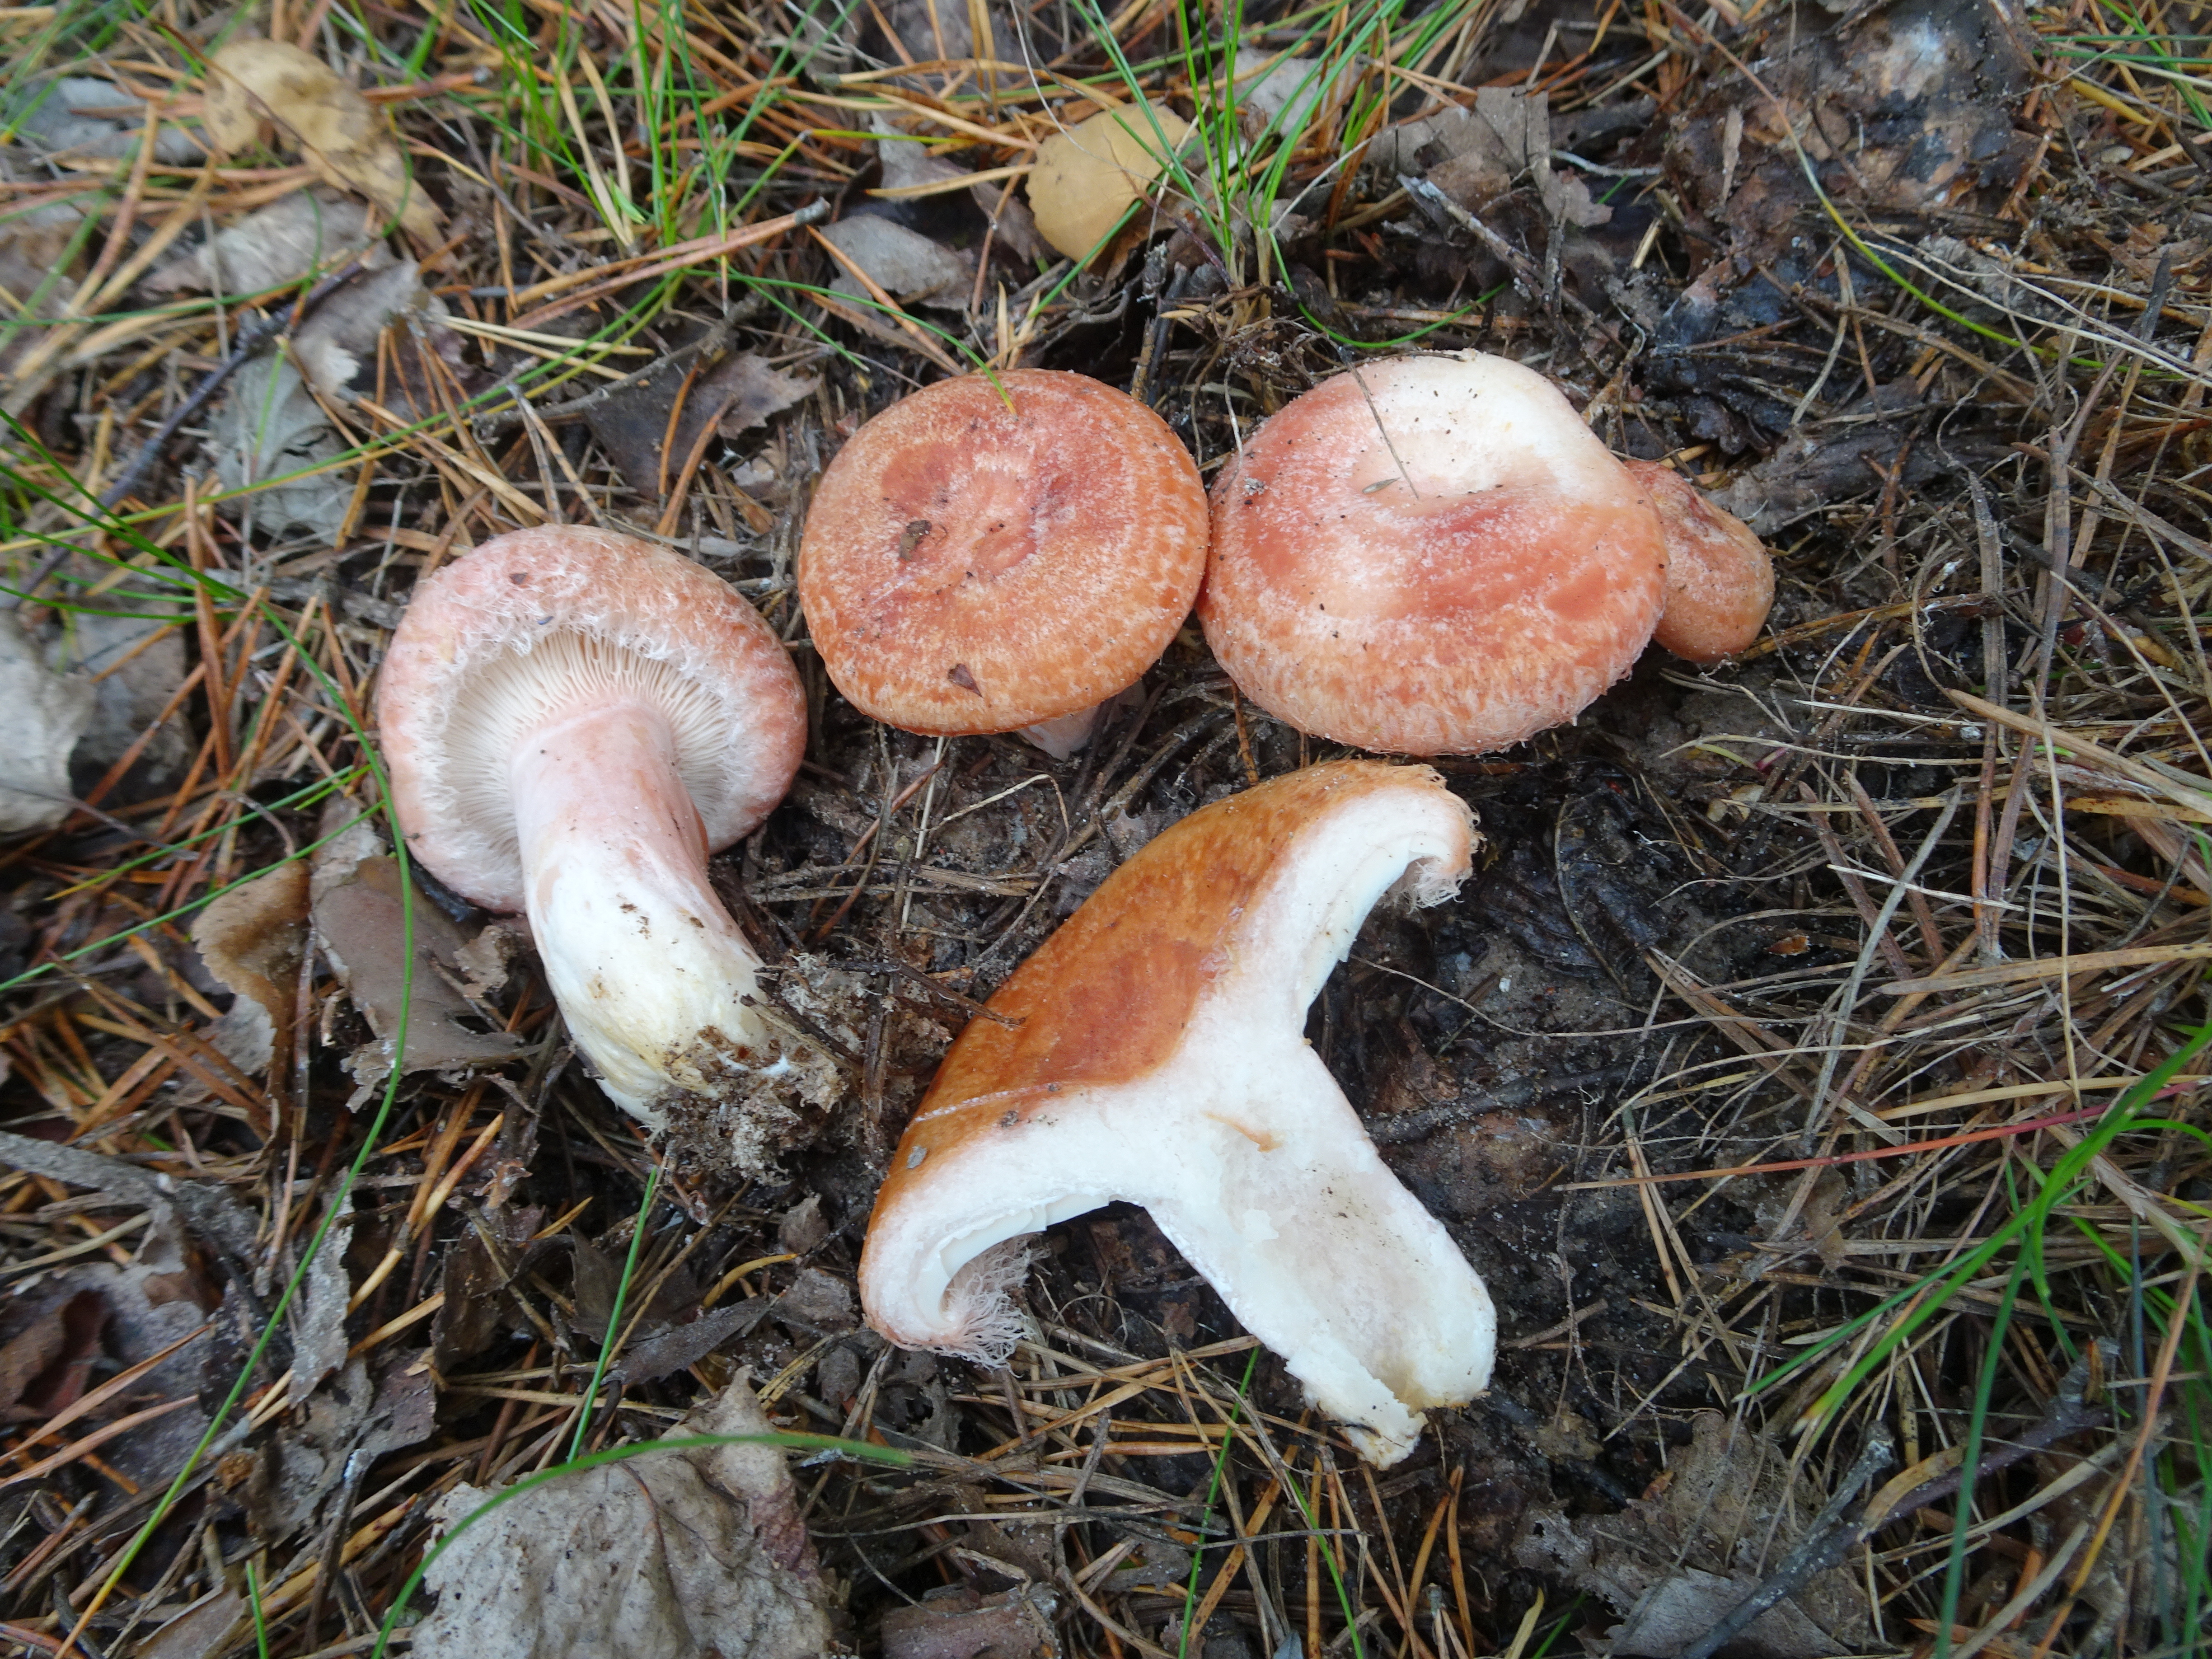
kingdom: Fungi
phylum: Basidiomycota
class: Agaricomycetes
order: Russulales
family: Russulaceae
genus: Lactarius
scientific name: Lactarius torminosus
